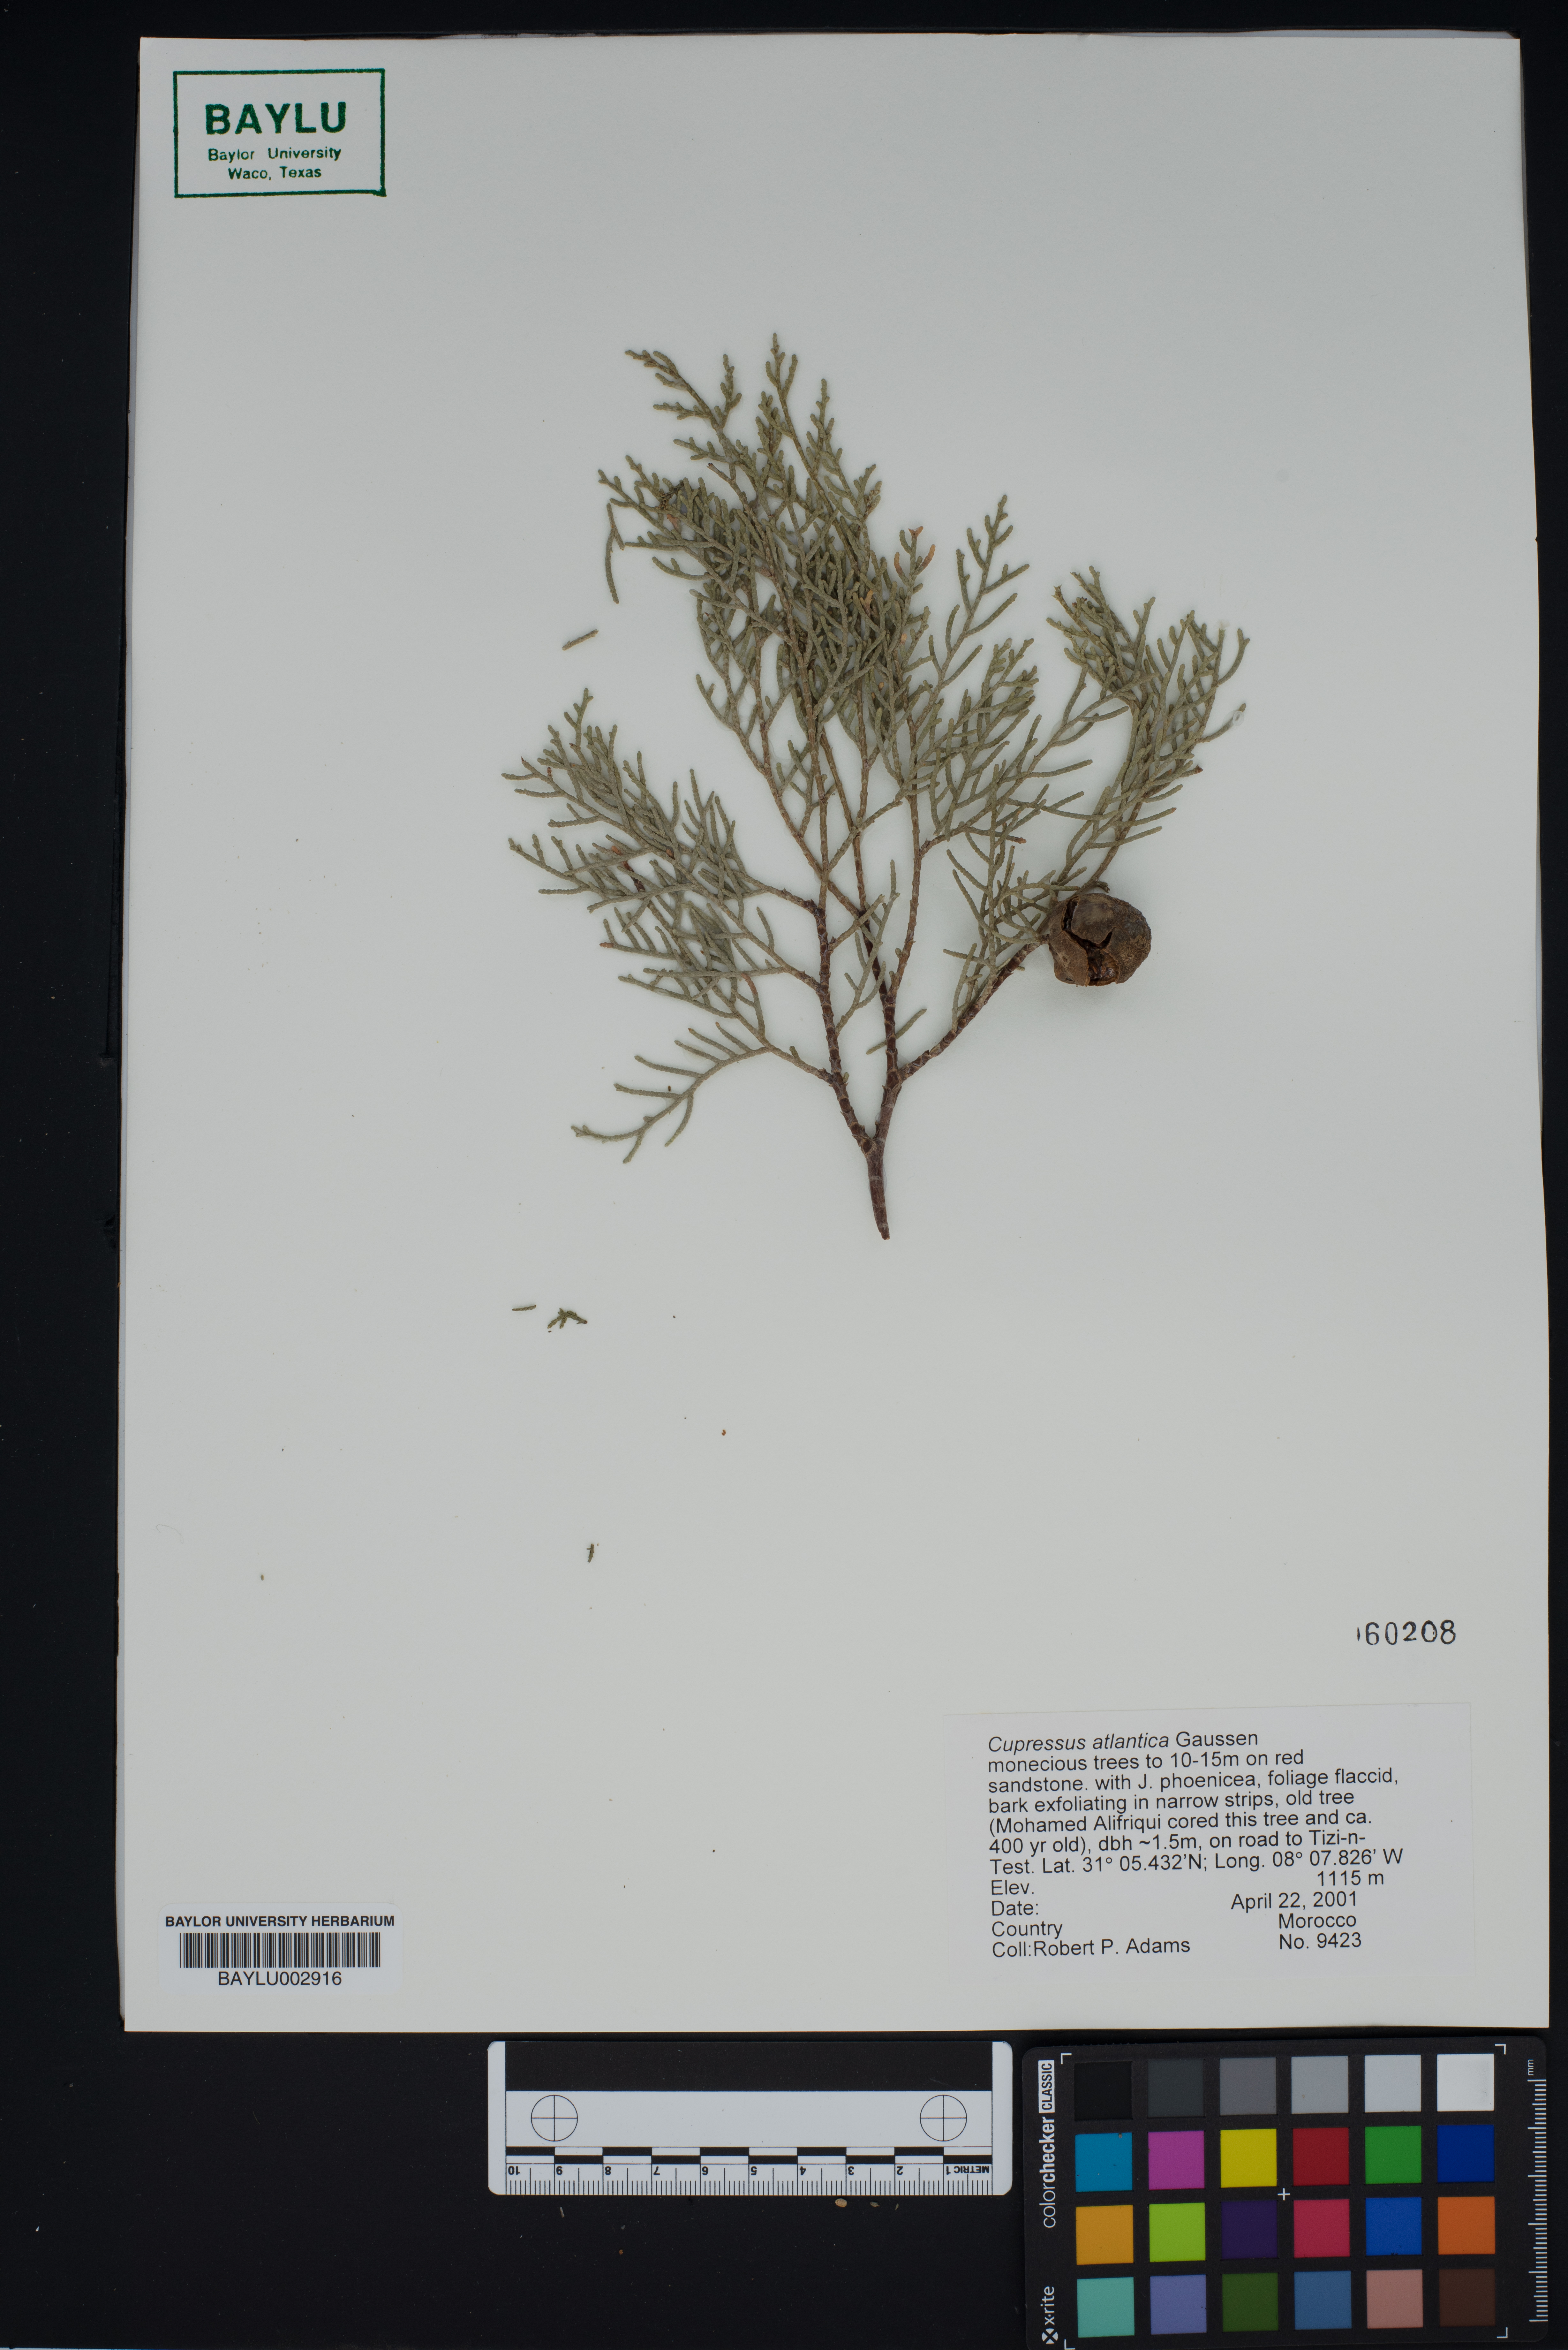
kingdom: Plantae
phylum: Tracheophyta
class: Pinopsida
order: Pinales
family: Cupressaceae
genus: Cupressus
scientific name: Cupressus dupreziana
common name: Moroccan cypress
